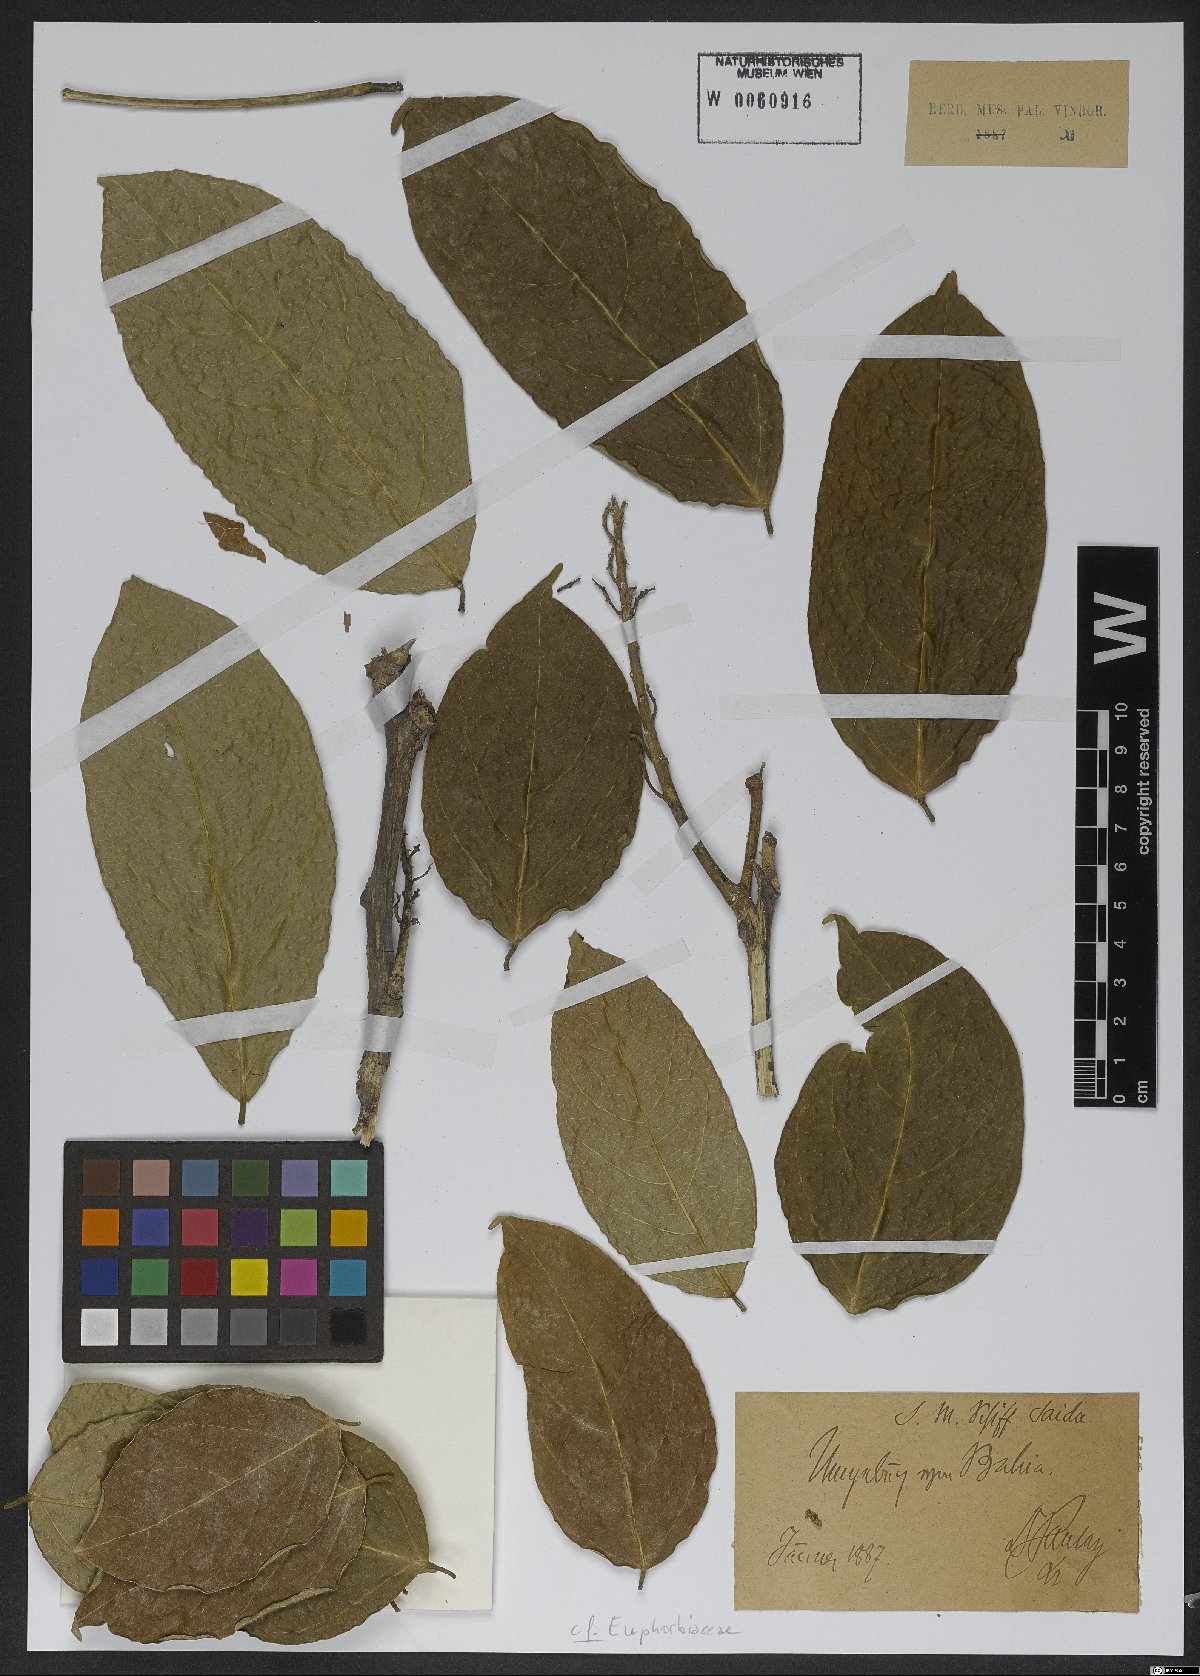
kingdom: Plantae
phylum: Tracheophyta
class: Magnoliopsida
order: Malpighiales
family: Euphorbiaceae
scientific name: Euphorbiaceae
